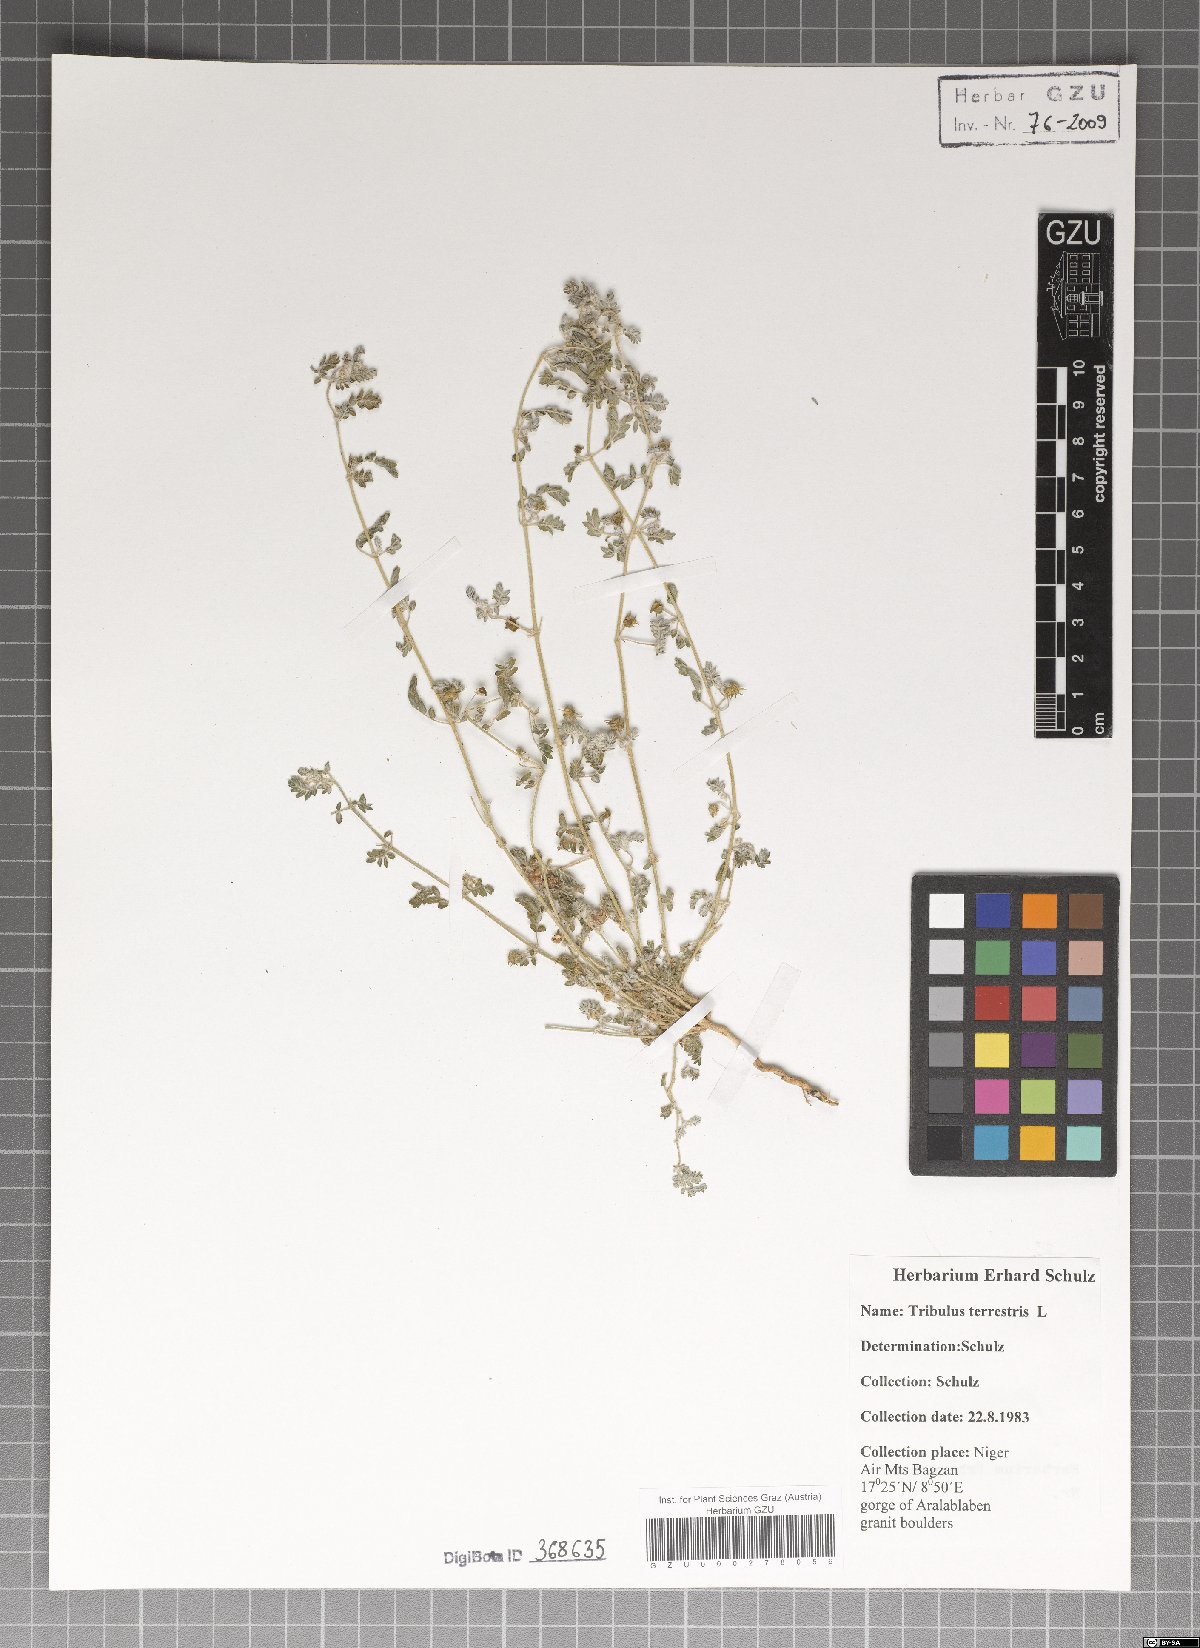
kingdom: Plantae
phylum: Tracheophyta
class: Magnoliopsida
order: Zygophyllales
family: Zygophyllaceae
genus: Tribulus
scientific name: Tribulus terrestris
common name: Puncturevine
